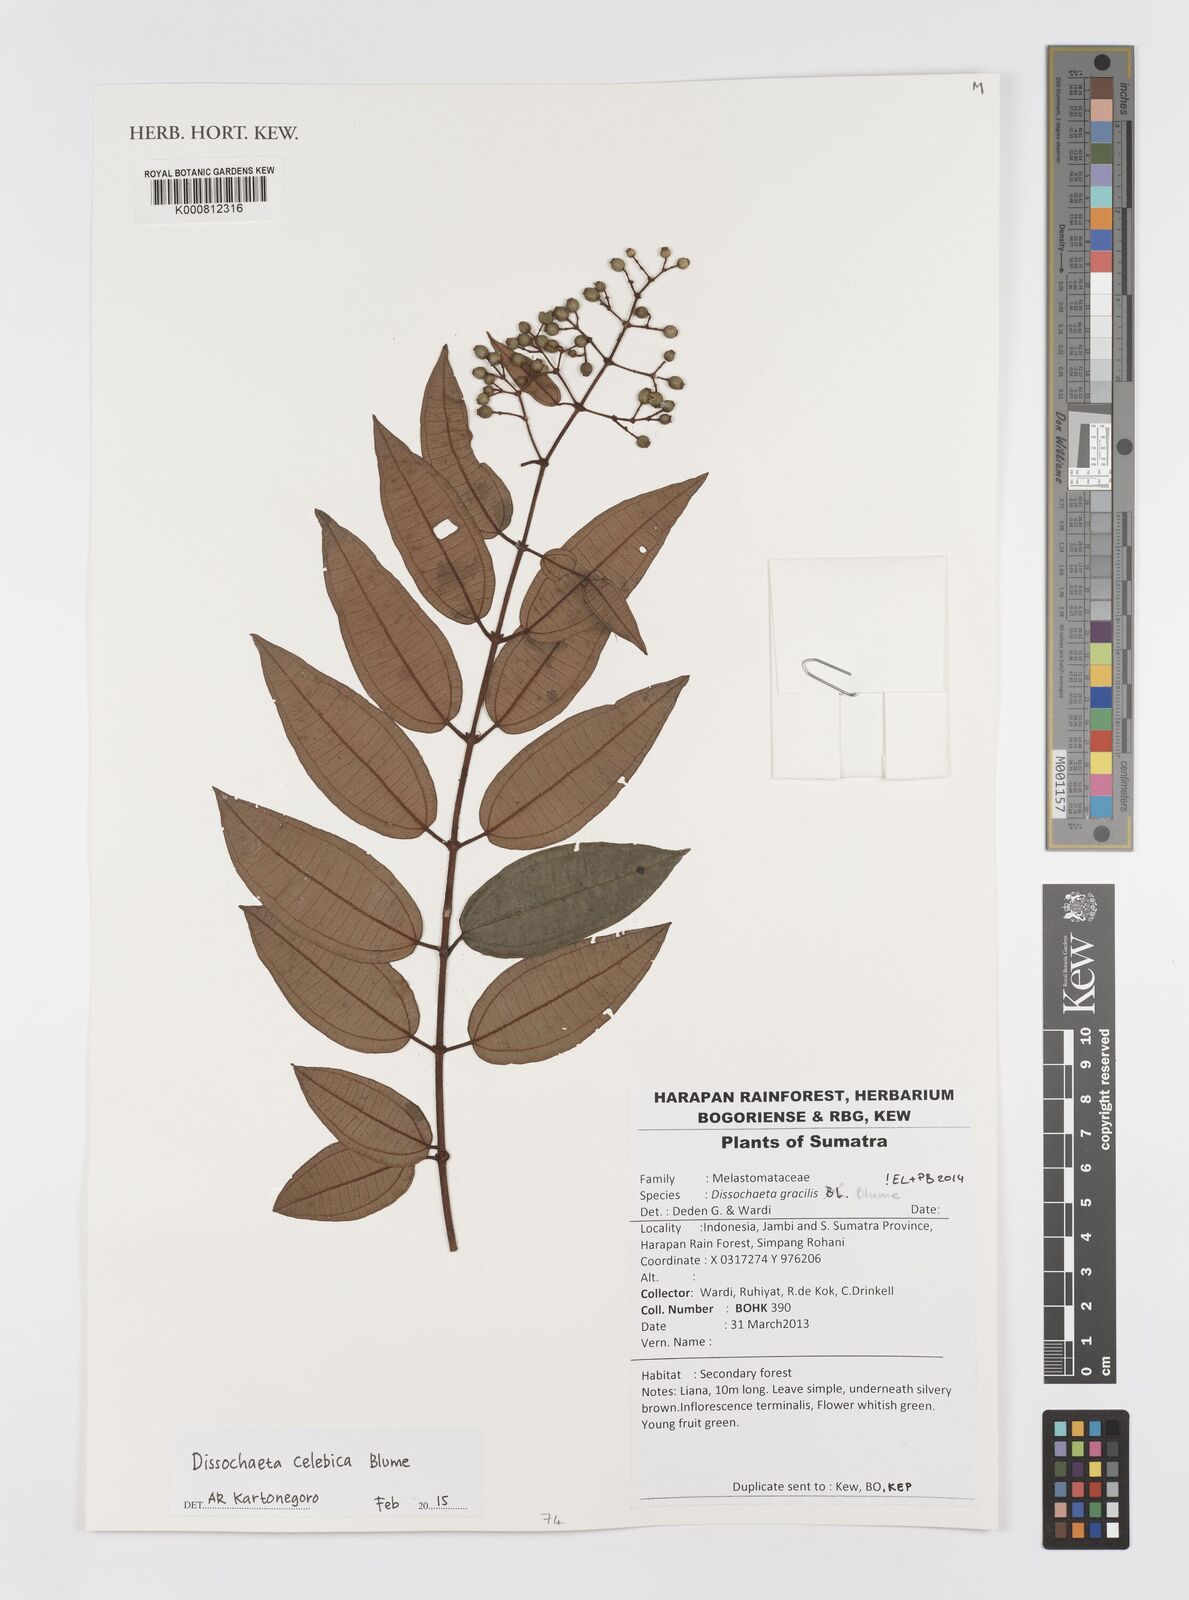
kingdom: Plantae
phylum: Tracheophyta
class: Magnoliopsida
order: Myrtales
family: Melastomataceae
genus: Dissochaeta
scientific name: Dissochaeta celebica
